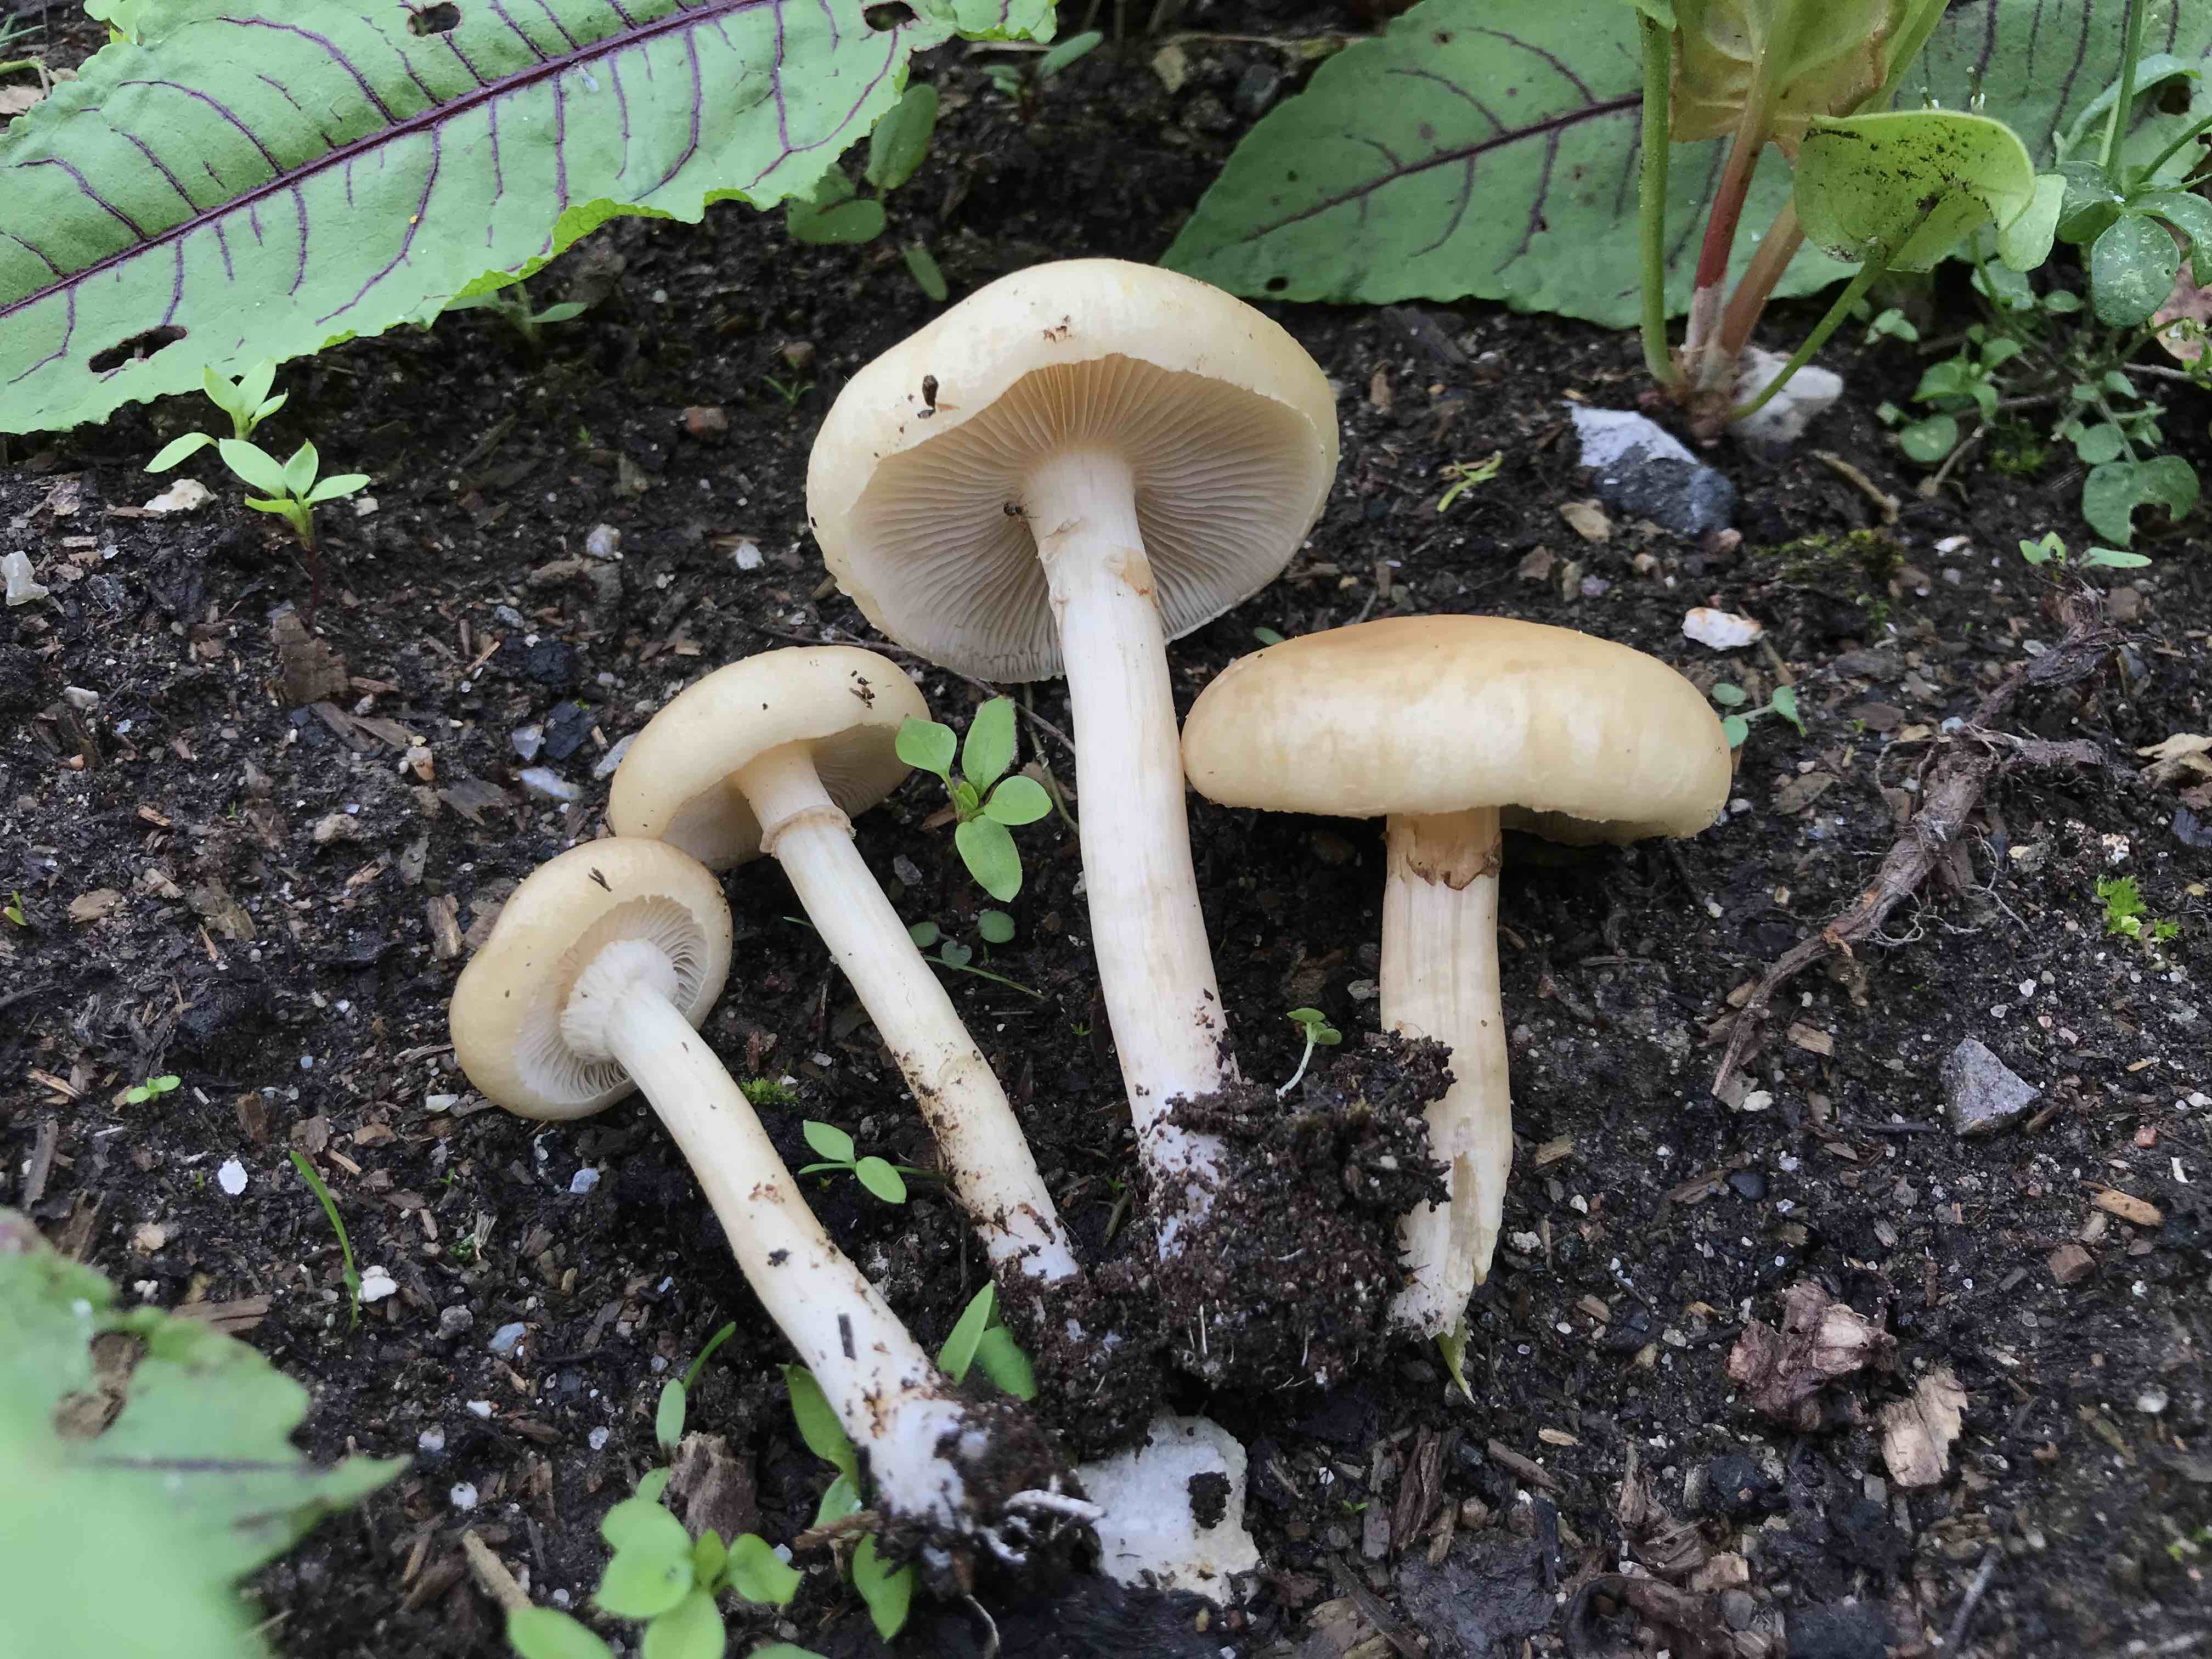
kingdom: Fungi
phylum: Basidiomycota
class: Agaricomycetes
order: Agaricales
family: Strophariaceae
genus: Agrocybe
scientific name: Agrocybe praecox
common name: tidlig agerhat
